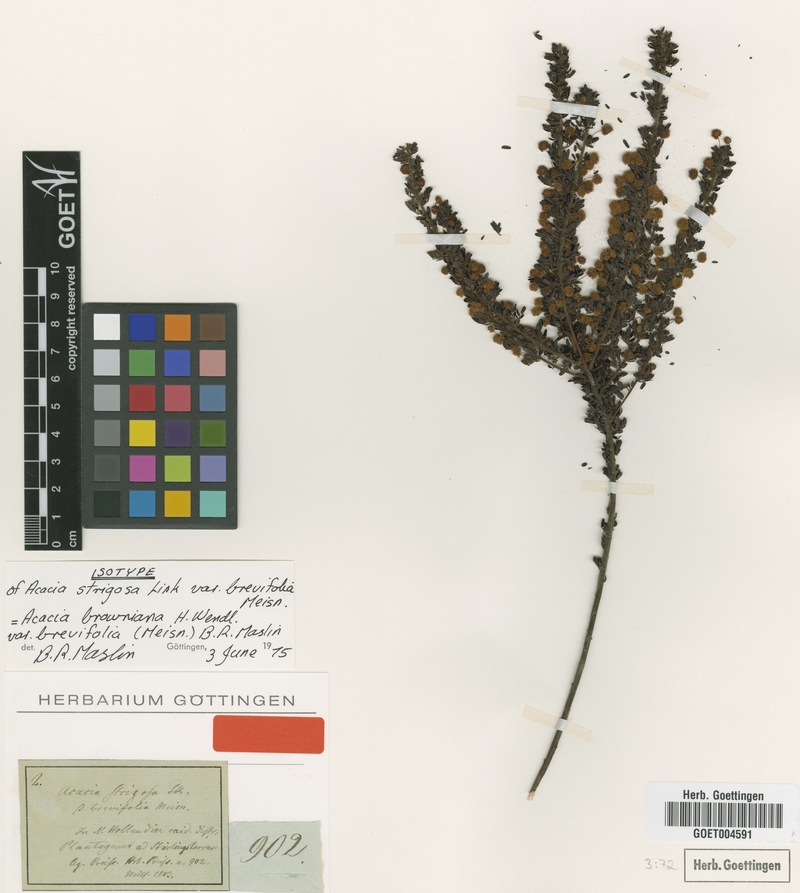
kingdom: Plantae
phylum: Tracheophyta
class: Magnoliopsida
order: Fabales
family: Fabaceae
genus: Acacia
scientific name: Acacia browniana
